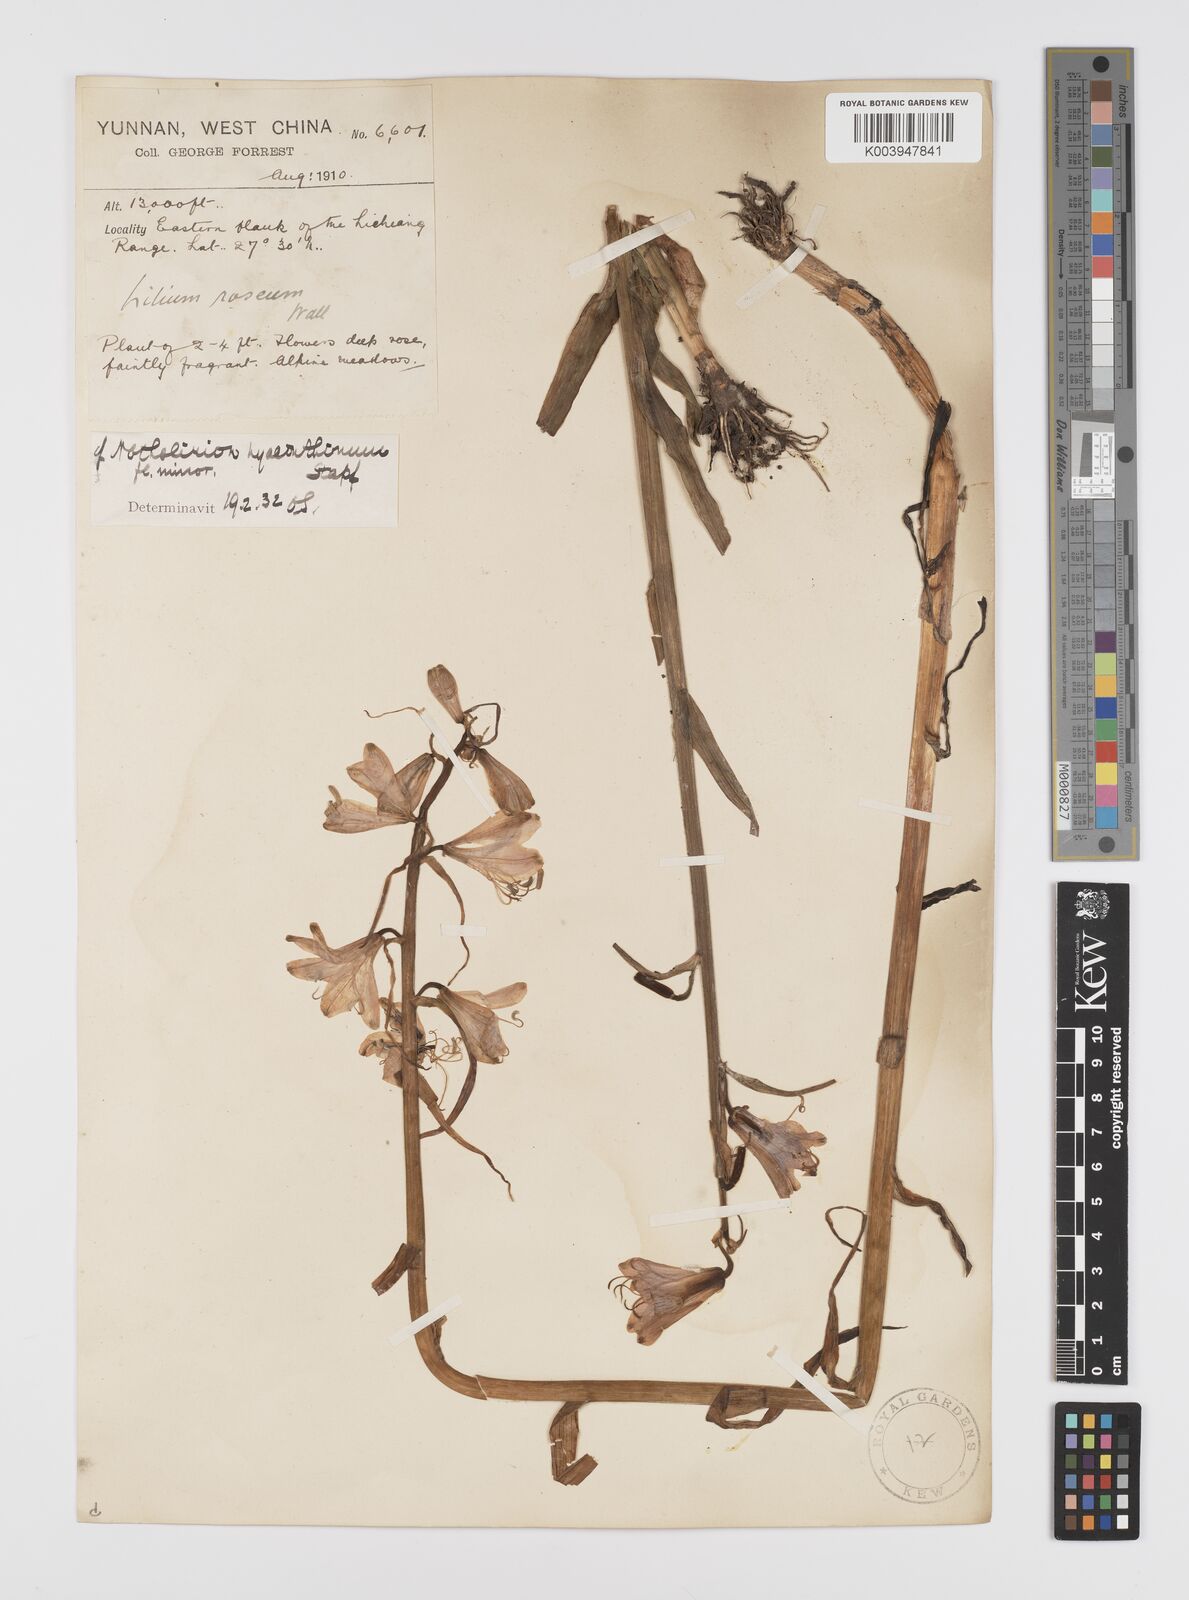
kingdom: Plantae
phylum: Tracheophyta
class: Liliopsida
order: Liliales
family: Liliaceae
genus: Notholirion
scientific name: Notholirion bulbuliferum
